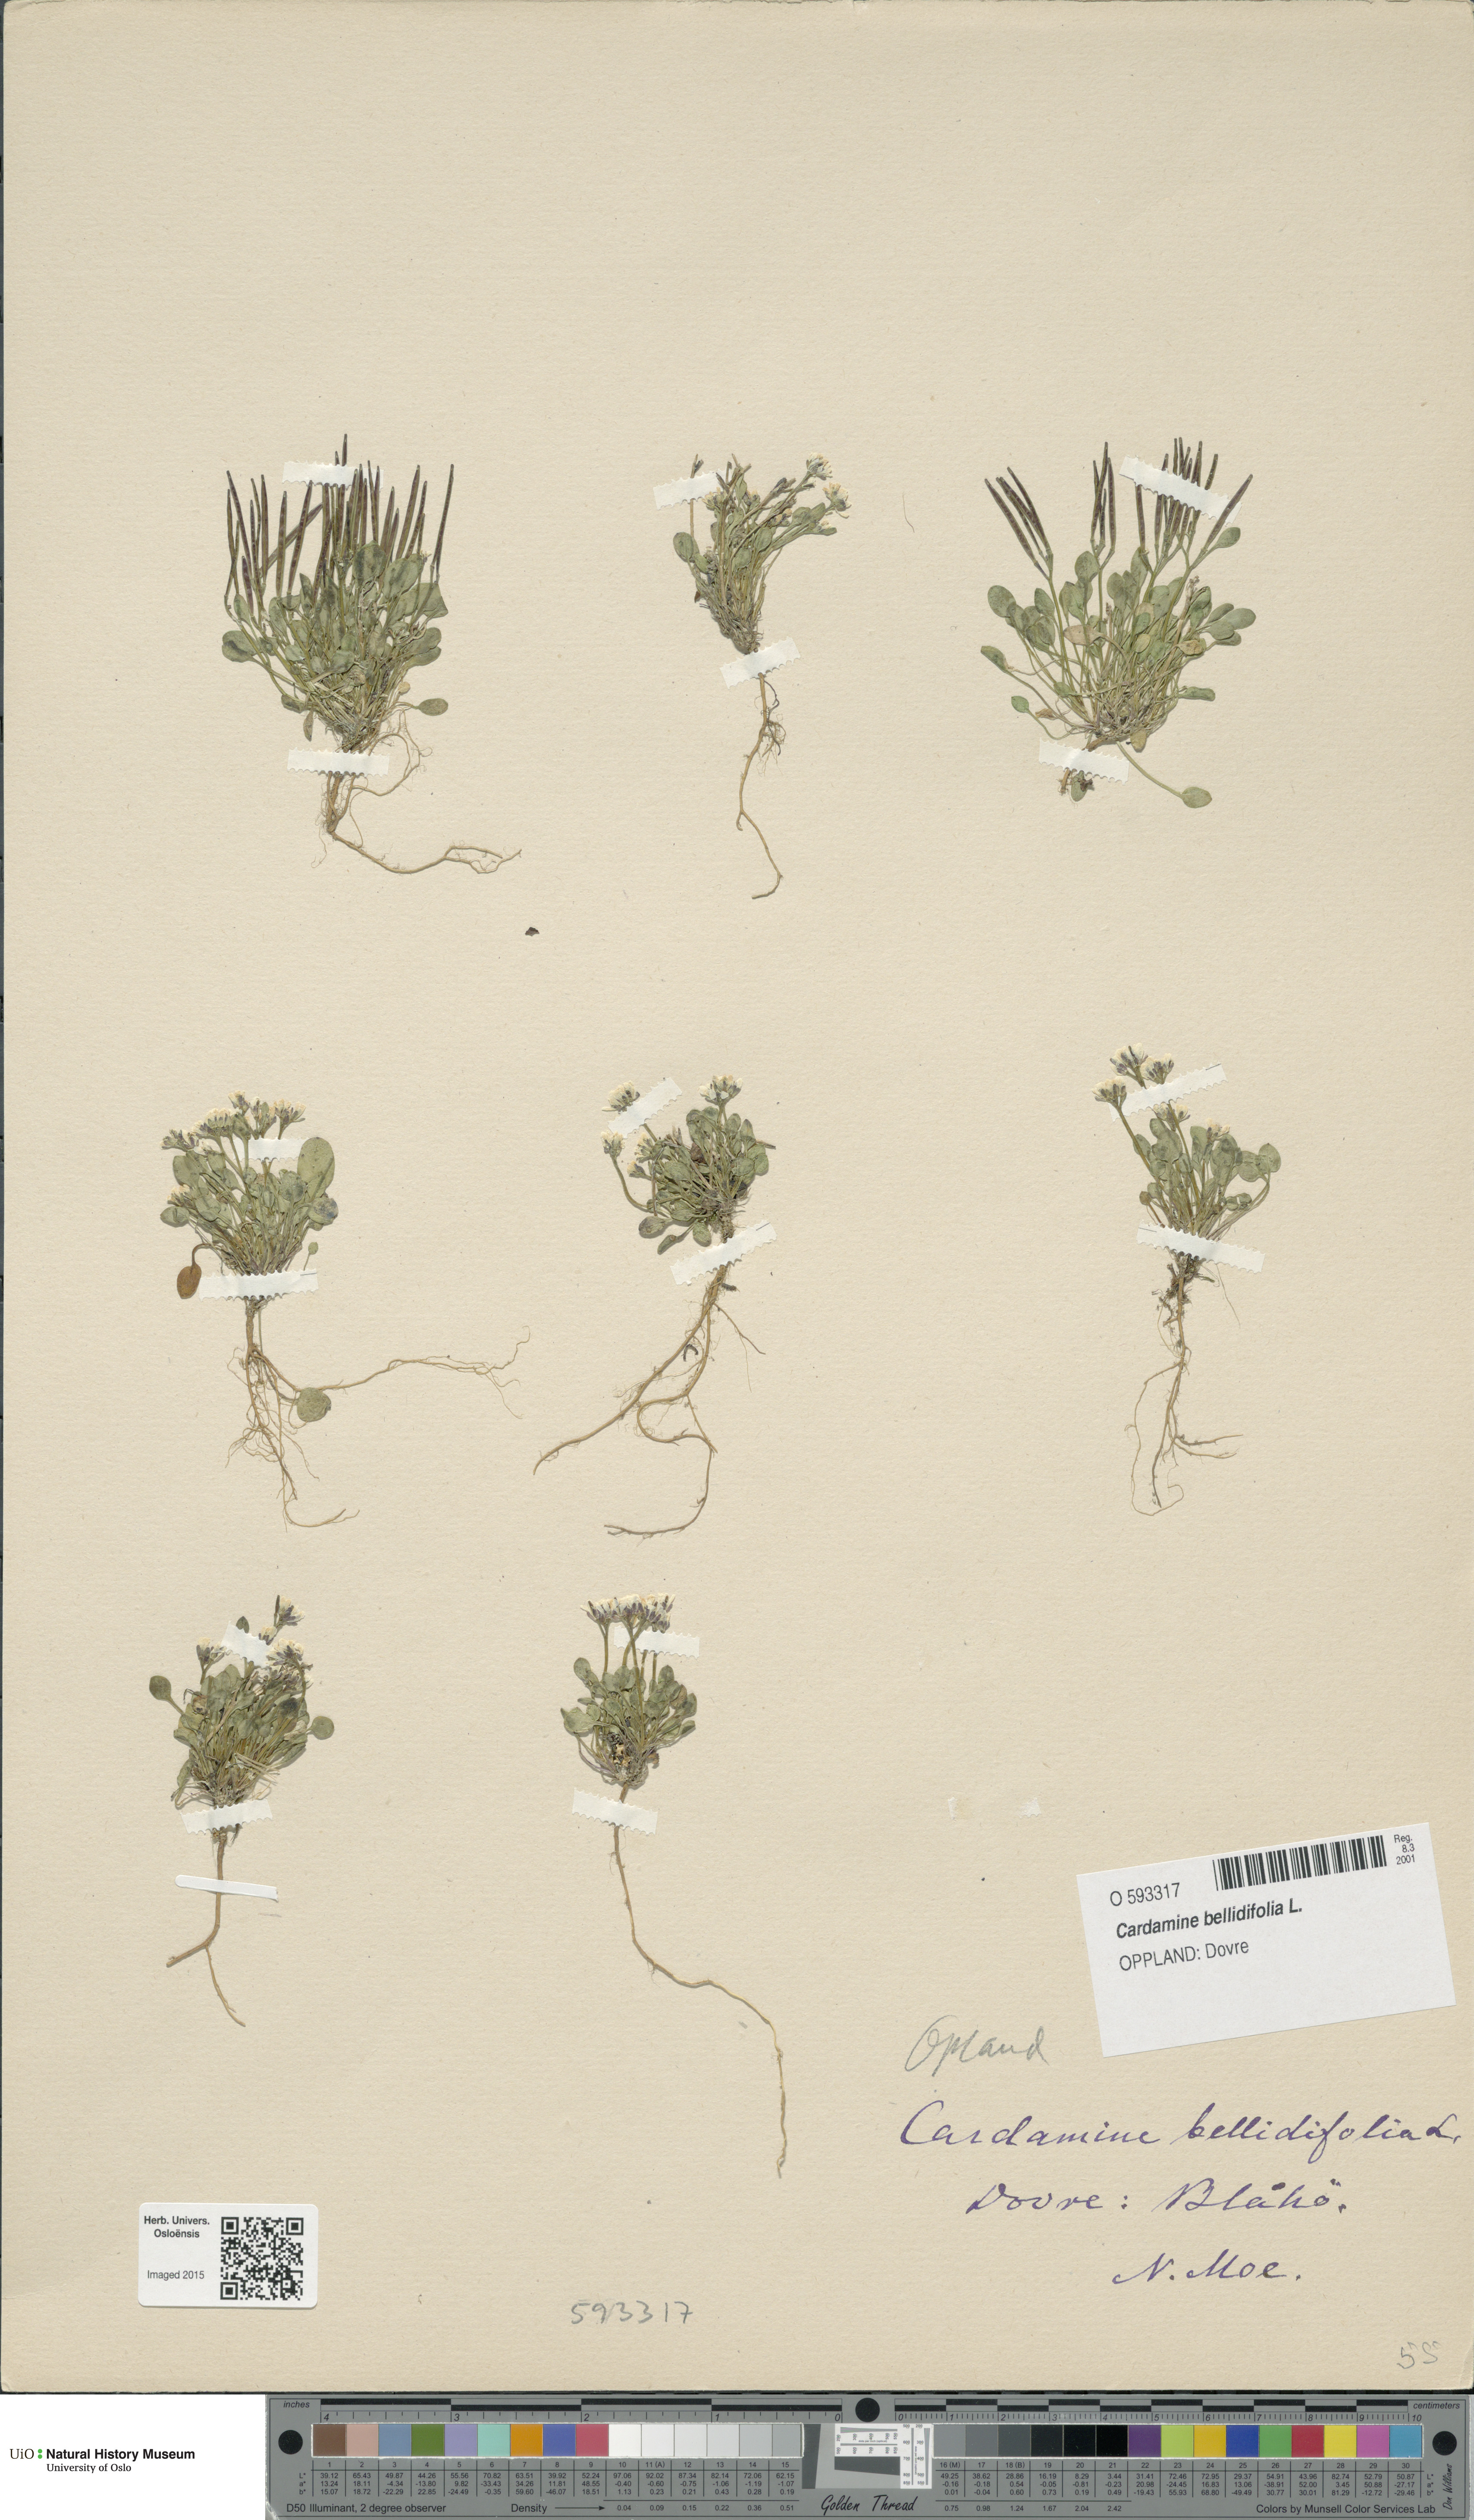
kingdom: Plantae
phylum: Tracheophyta
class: Magnoliopsida
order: Brassicales
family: Brassicaceae
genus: Cardamine
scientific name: Cardamine bellidifolia
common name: Alpine bittercress
